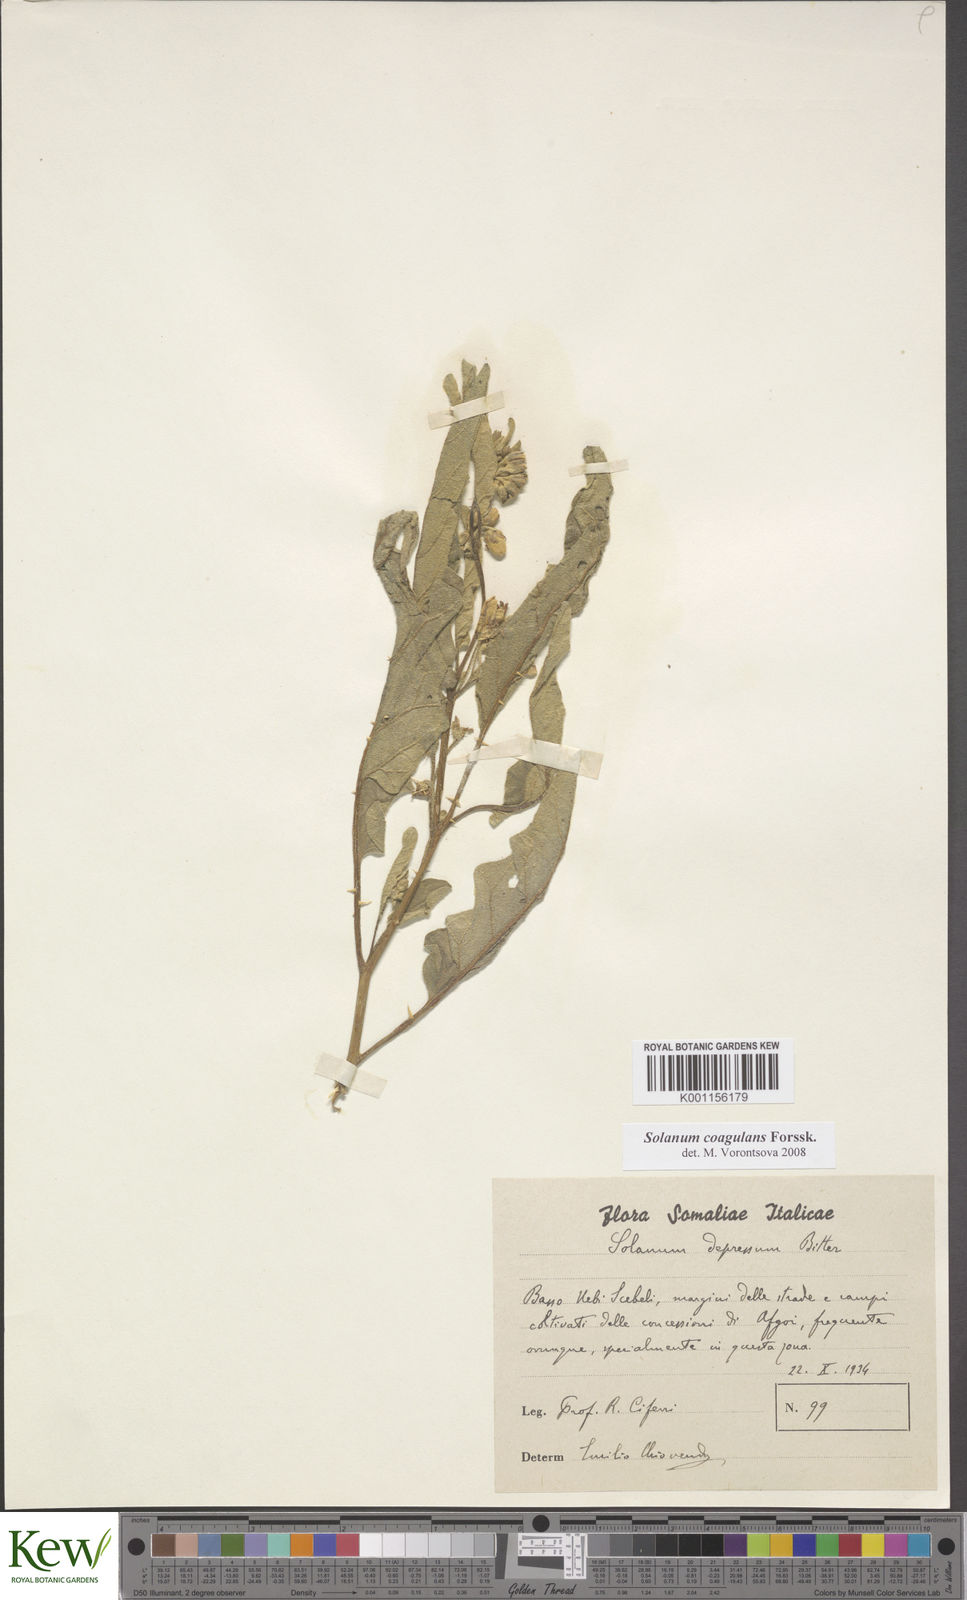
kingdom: Plantae
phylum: Tracheophyta
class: Magnoliopsida
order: Solanales
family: Solanaceae
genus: Solanum
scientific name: Solanum coagulans
